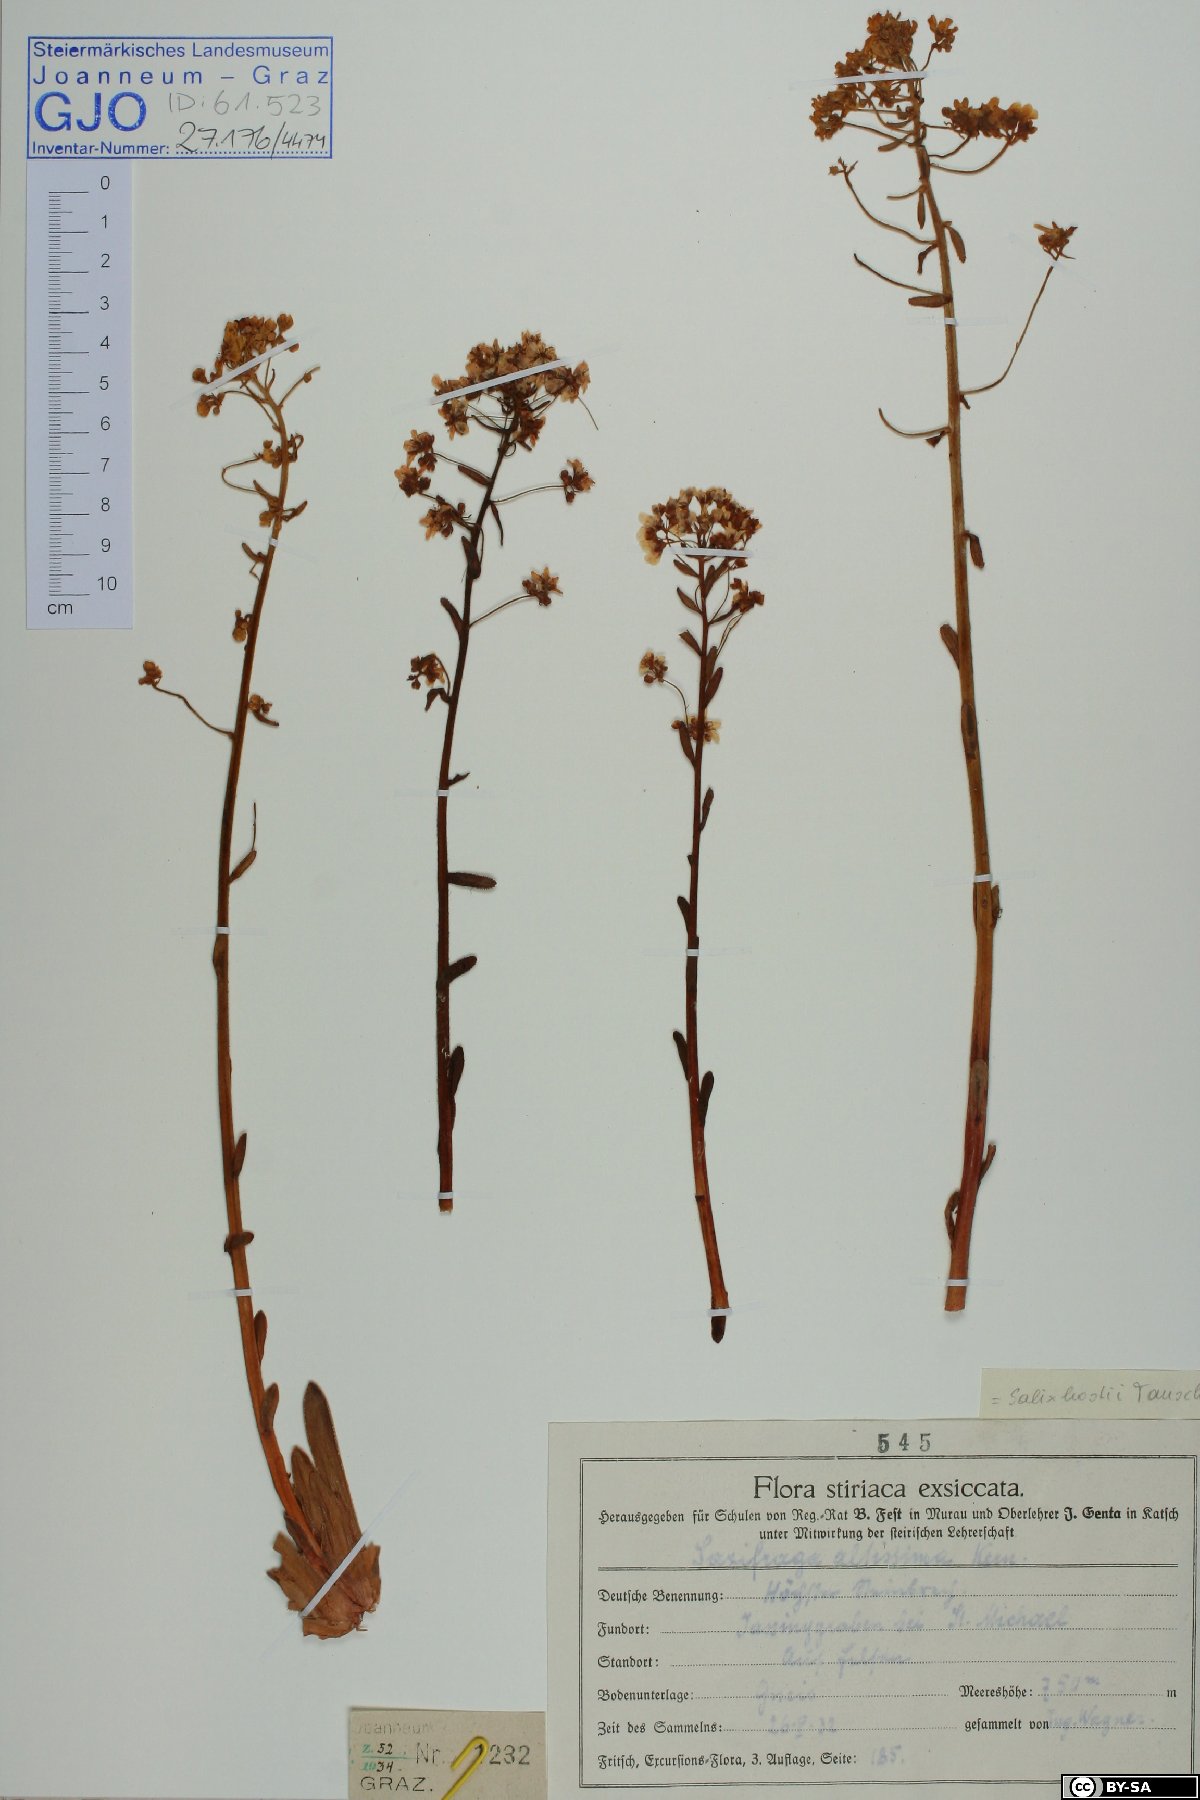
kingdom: Plantae
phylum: Tracheophyta
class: Magnoliopsida
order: Saxifragales
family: Saxifragaceae
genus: Saxifraga
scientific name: Saxifraga hostii
